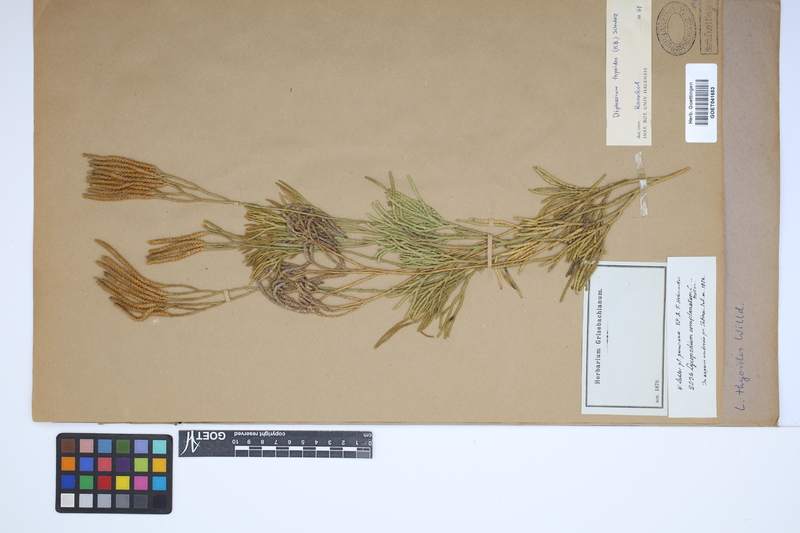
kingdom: Plantae
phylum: Tracheophyta
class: Lycopodiopsida
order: Lycopodiales
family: Lycopodiaceae
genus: Diphasiastrum
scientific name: Diphasiastrum thyoides
